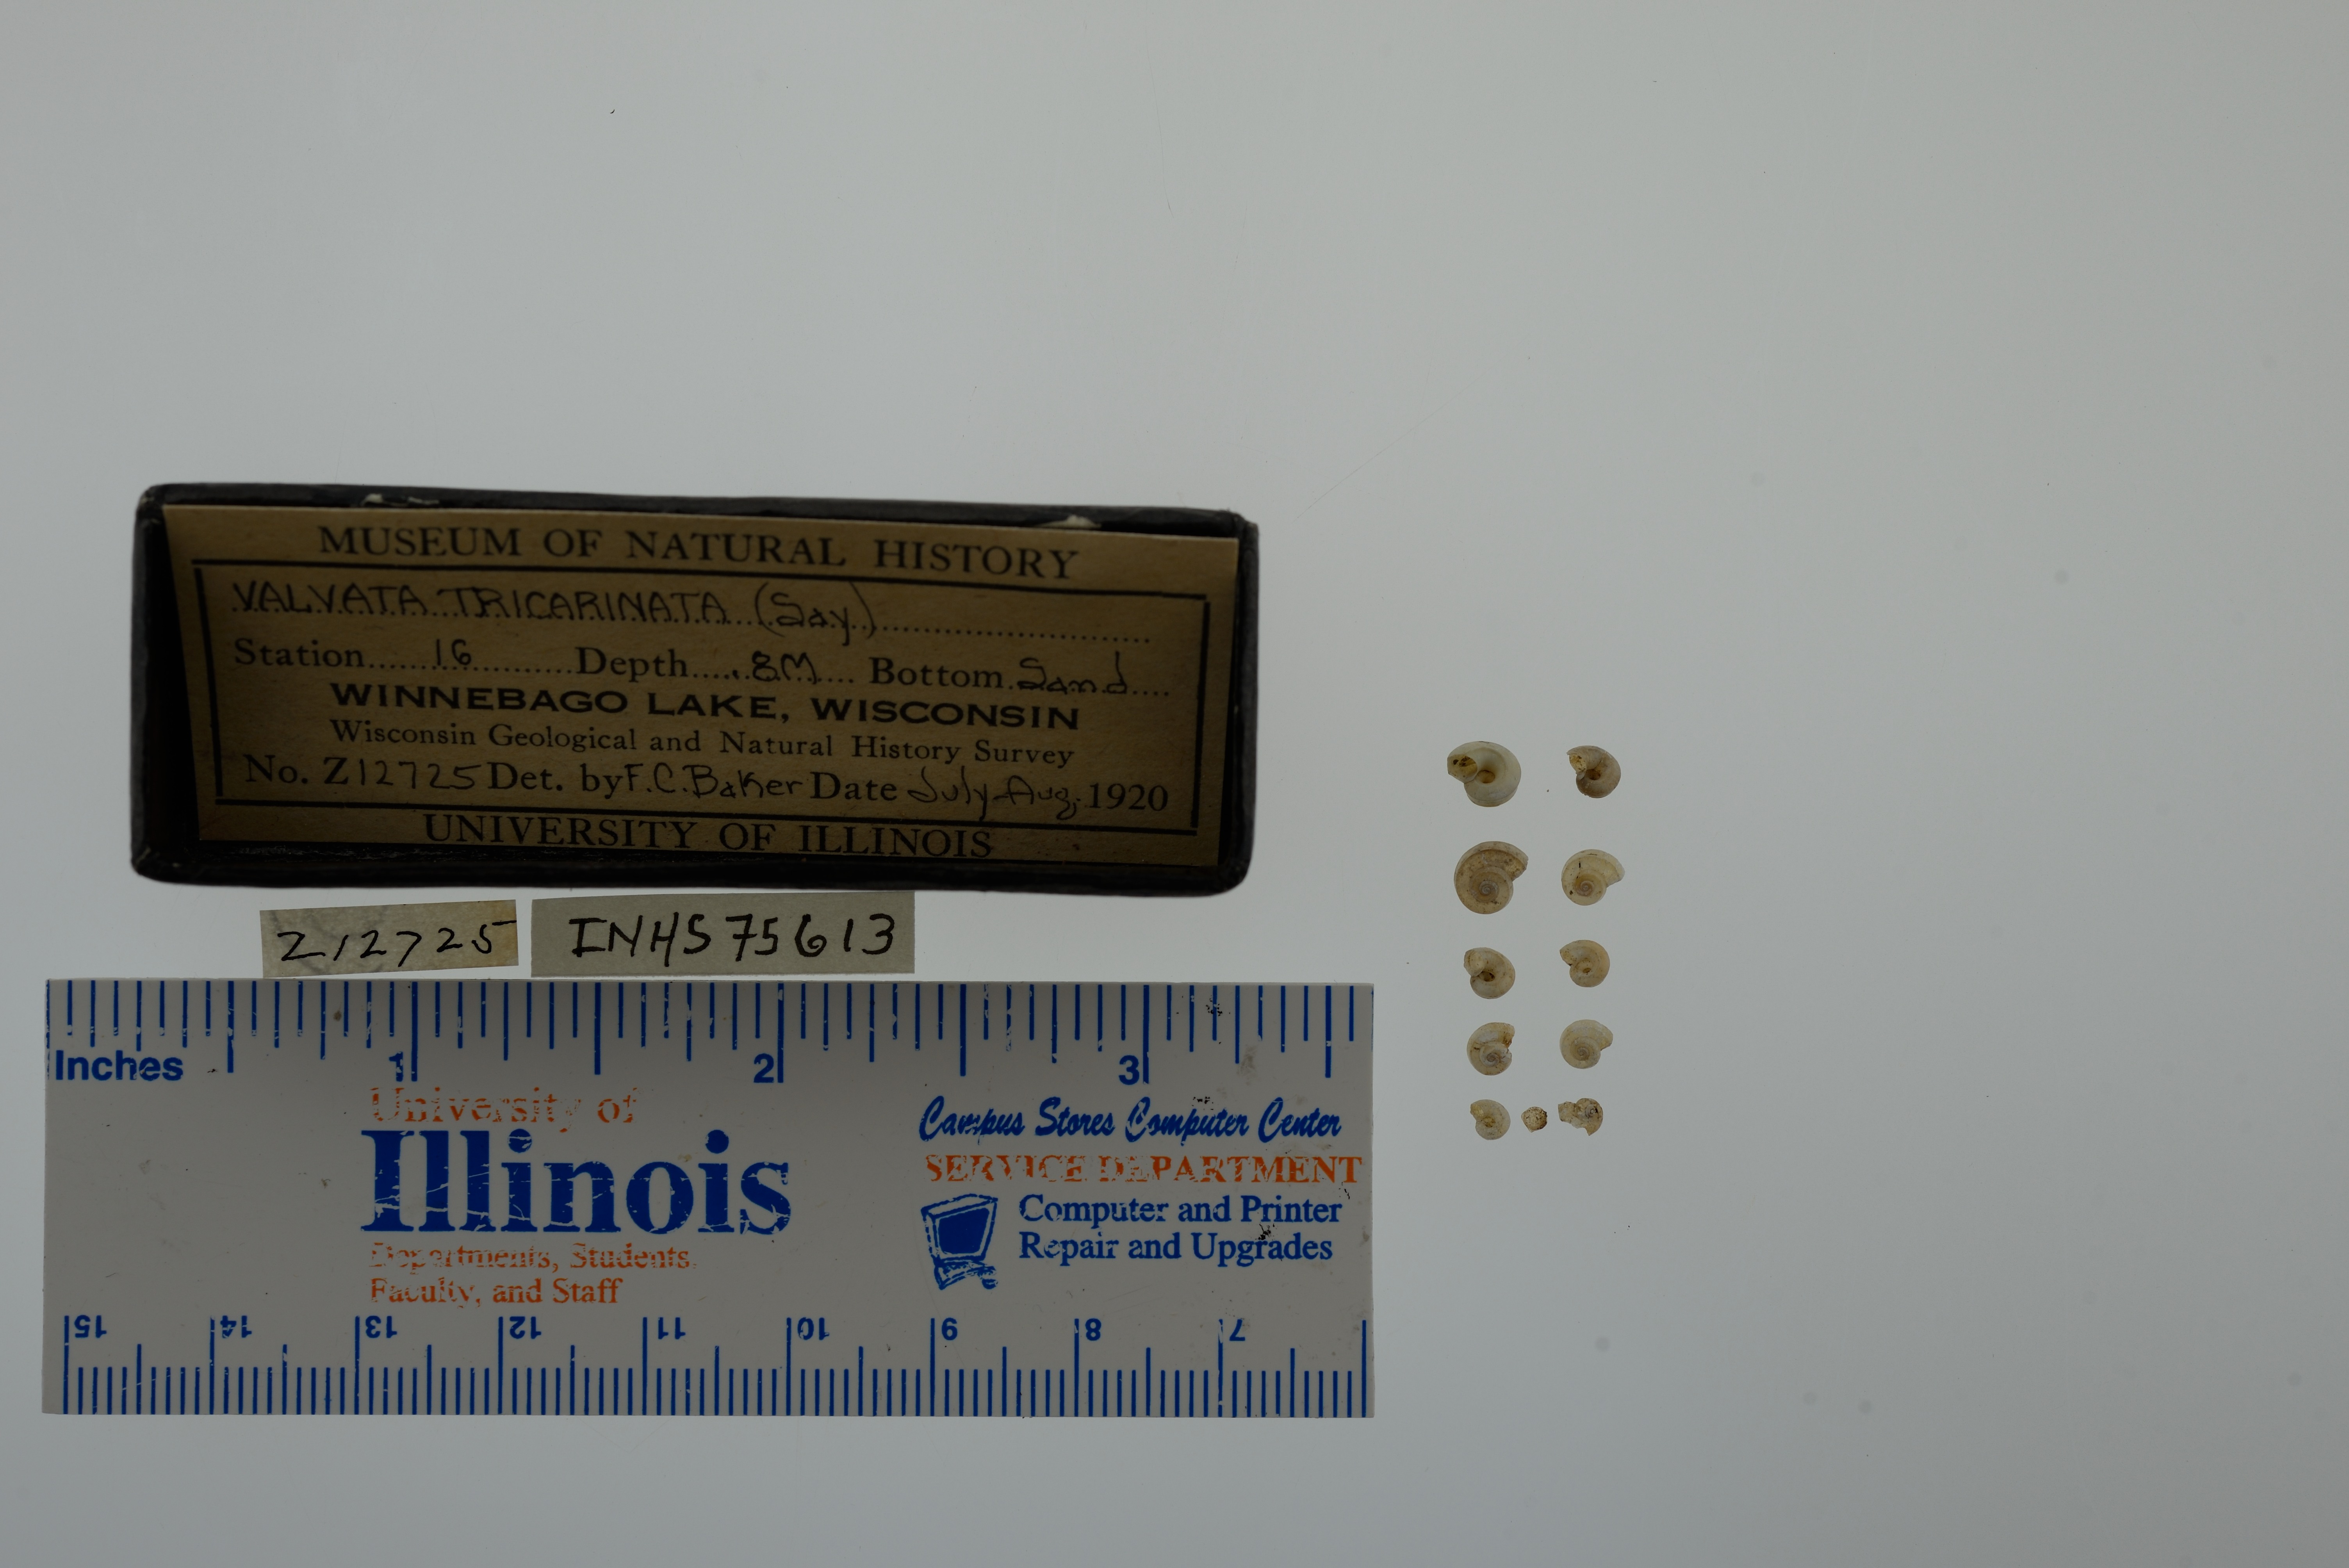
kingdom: Animalia
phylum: Mollusca
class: Gastropoda
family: Valvatidae
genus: Valvata
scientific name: Valvata tricarinata
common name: Three-ridge valvata
